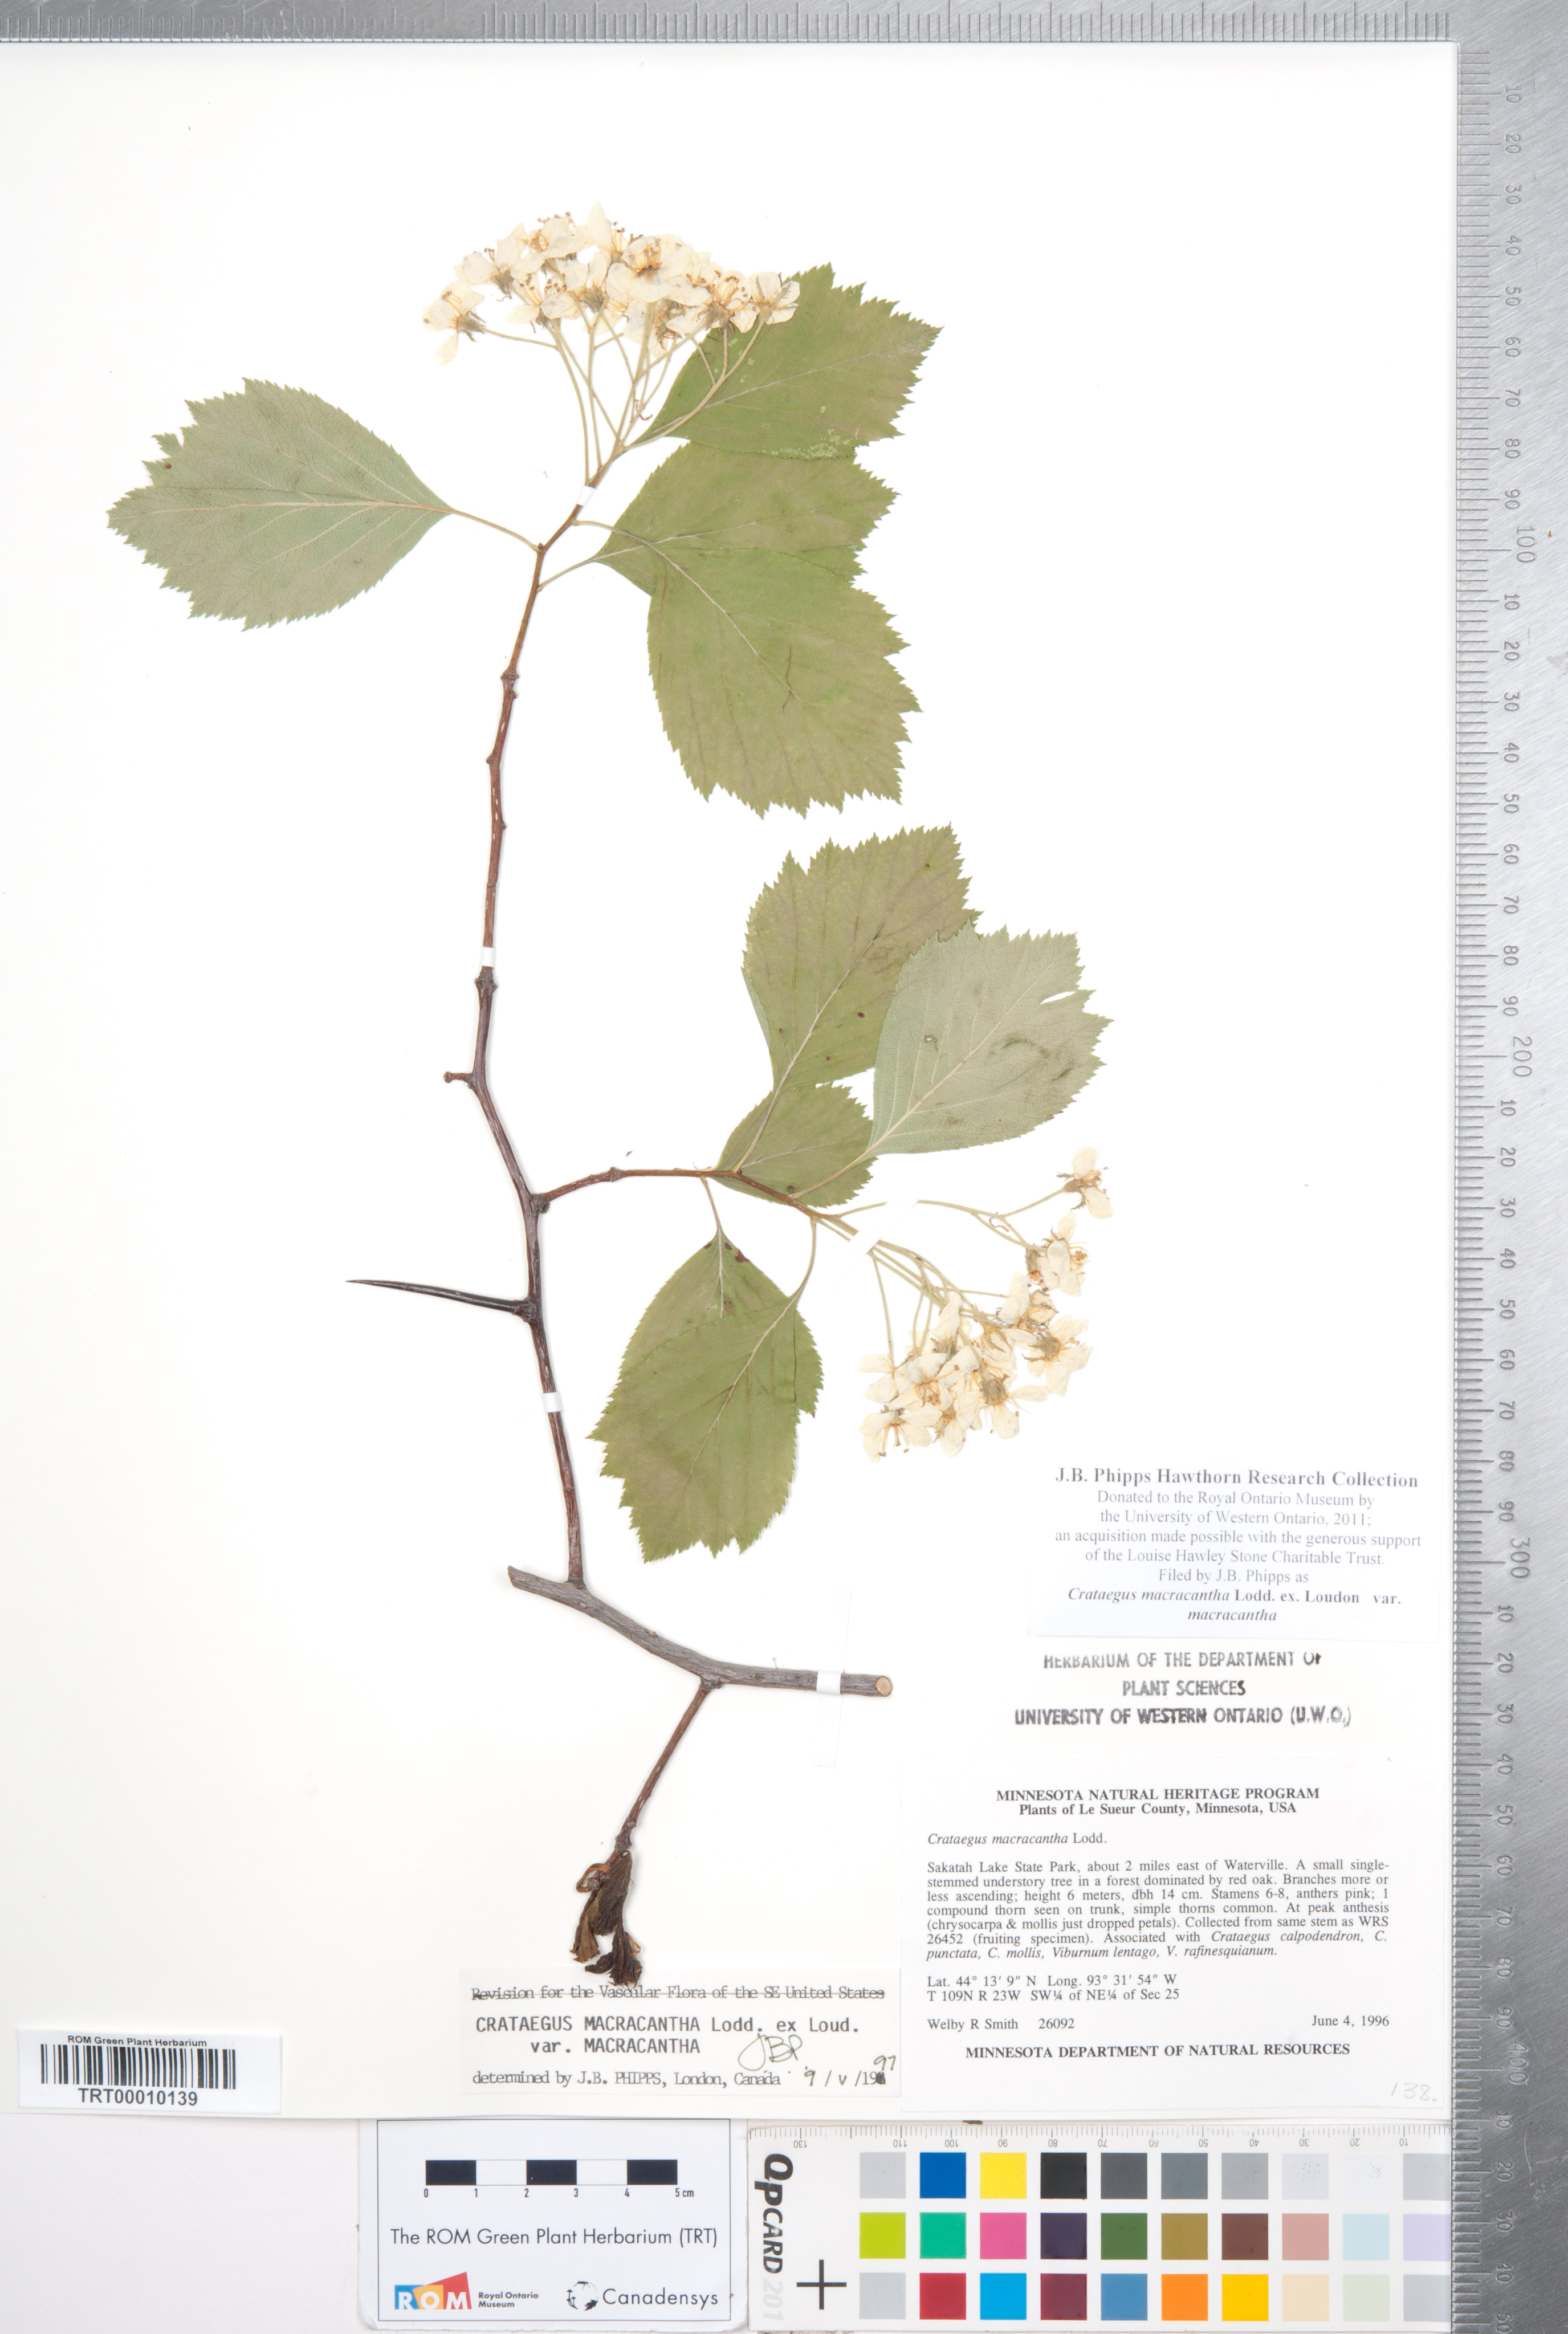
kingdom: Plantae
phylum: Tracheophyta
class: Magnoliopsida
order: Rosales
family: Rosaceae
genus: Crataegus
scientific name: Crataegus macracantha
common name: Large-thorn hawthorn
